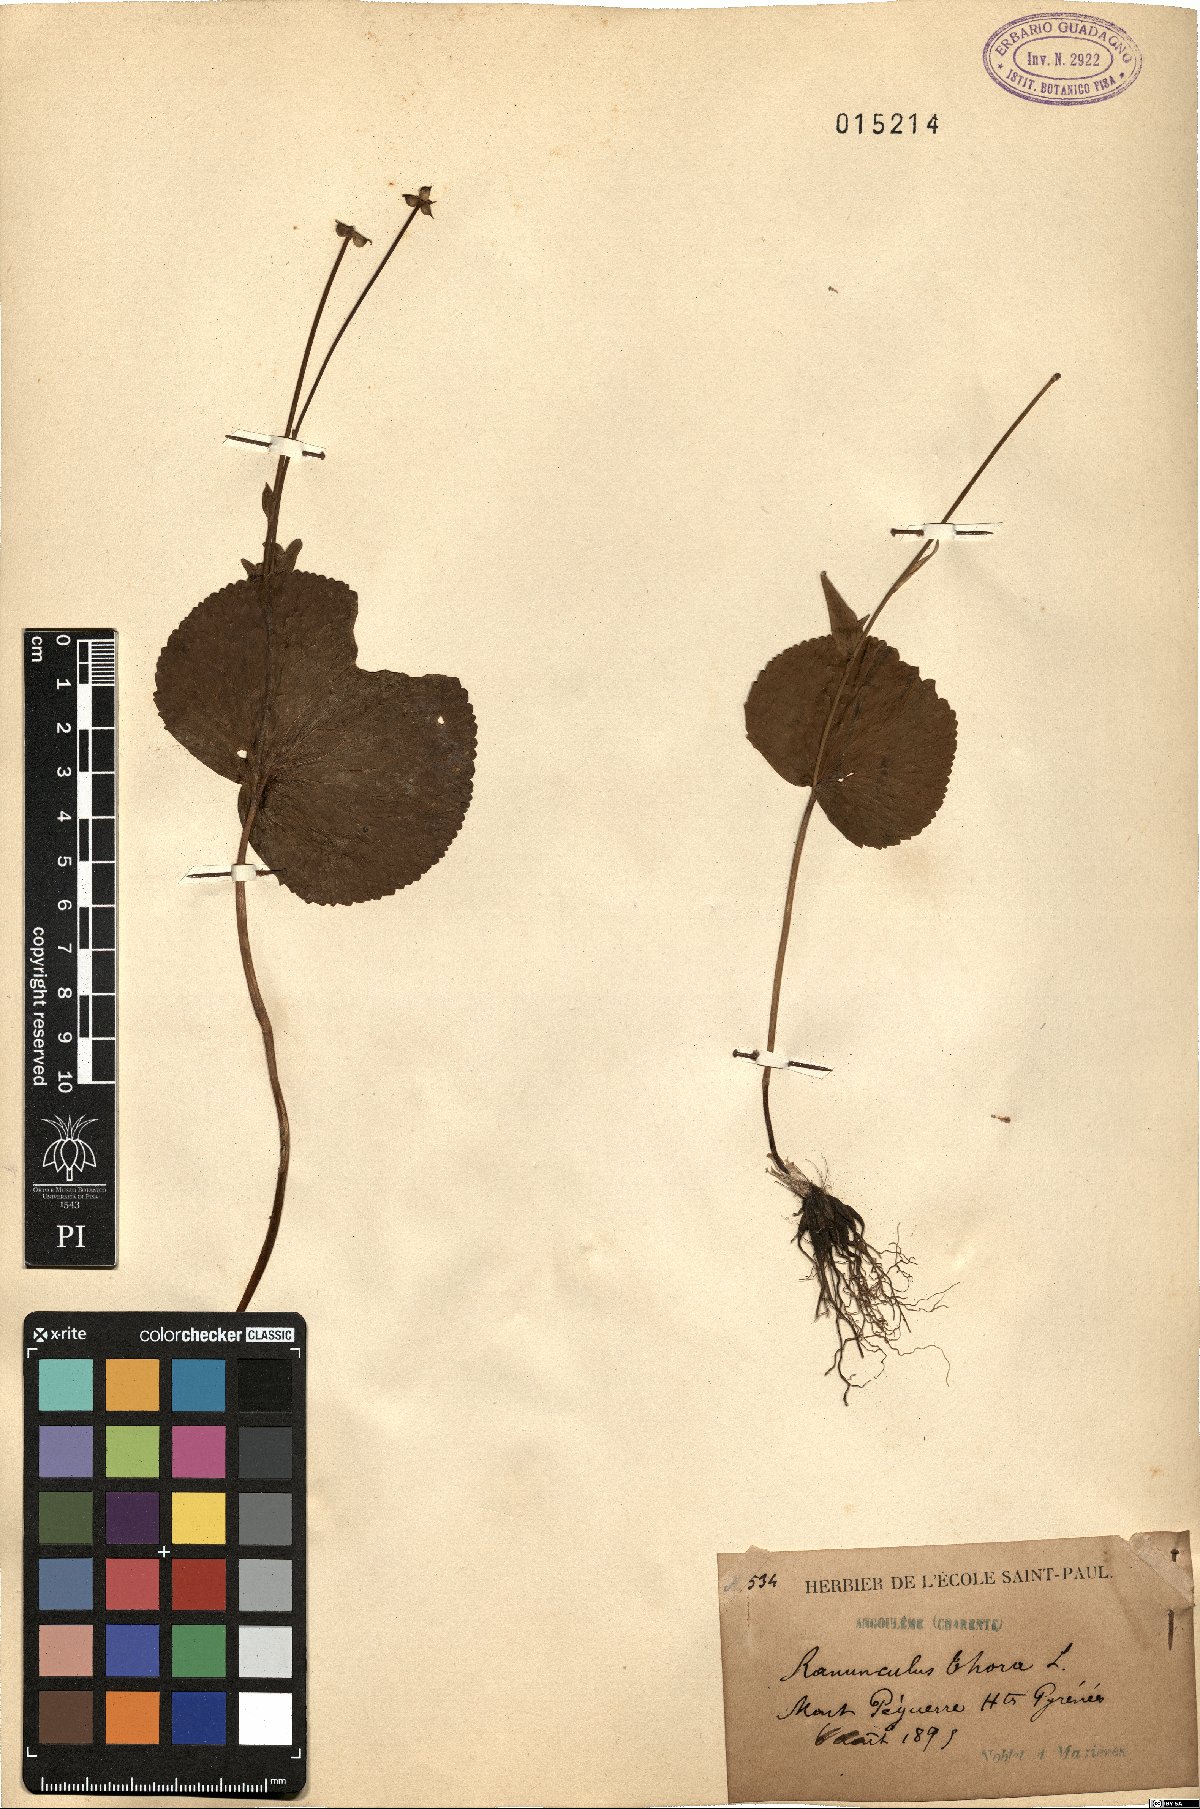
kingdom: Plantae
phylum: Tracheophyta
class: Magnoliopsida
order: Ranunculales
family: Ranunculaceae
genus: Ranunculus
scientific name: Ranunculus thora
